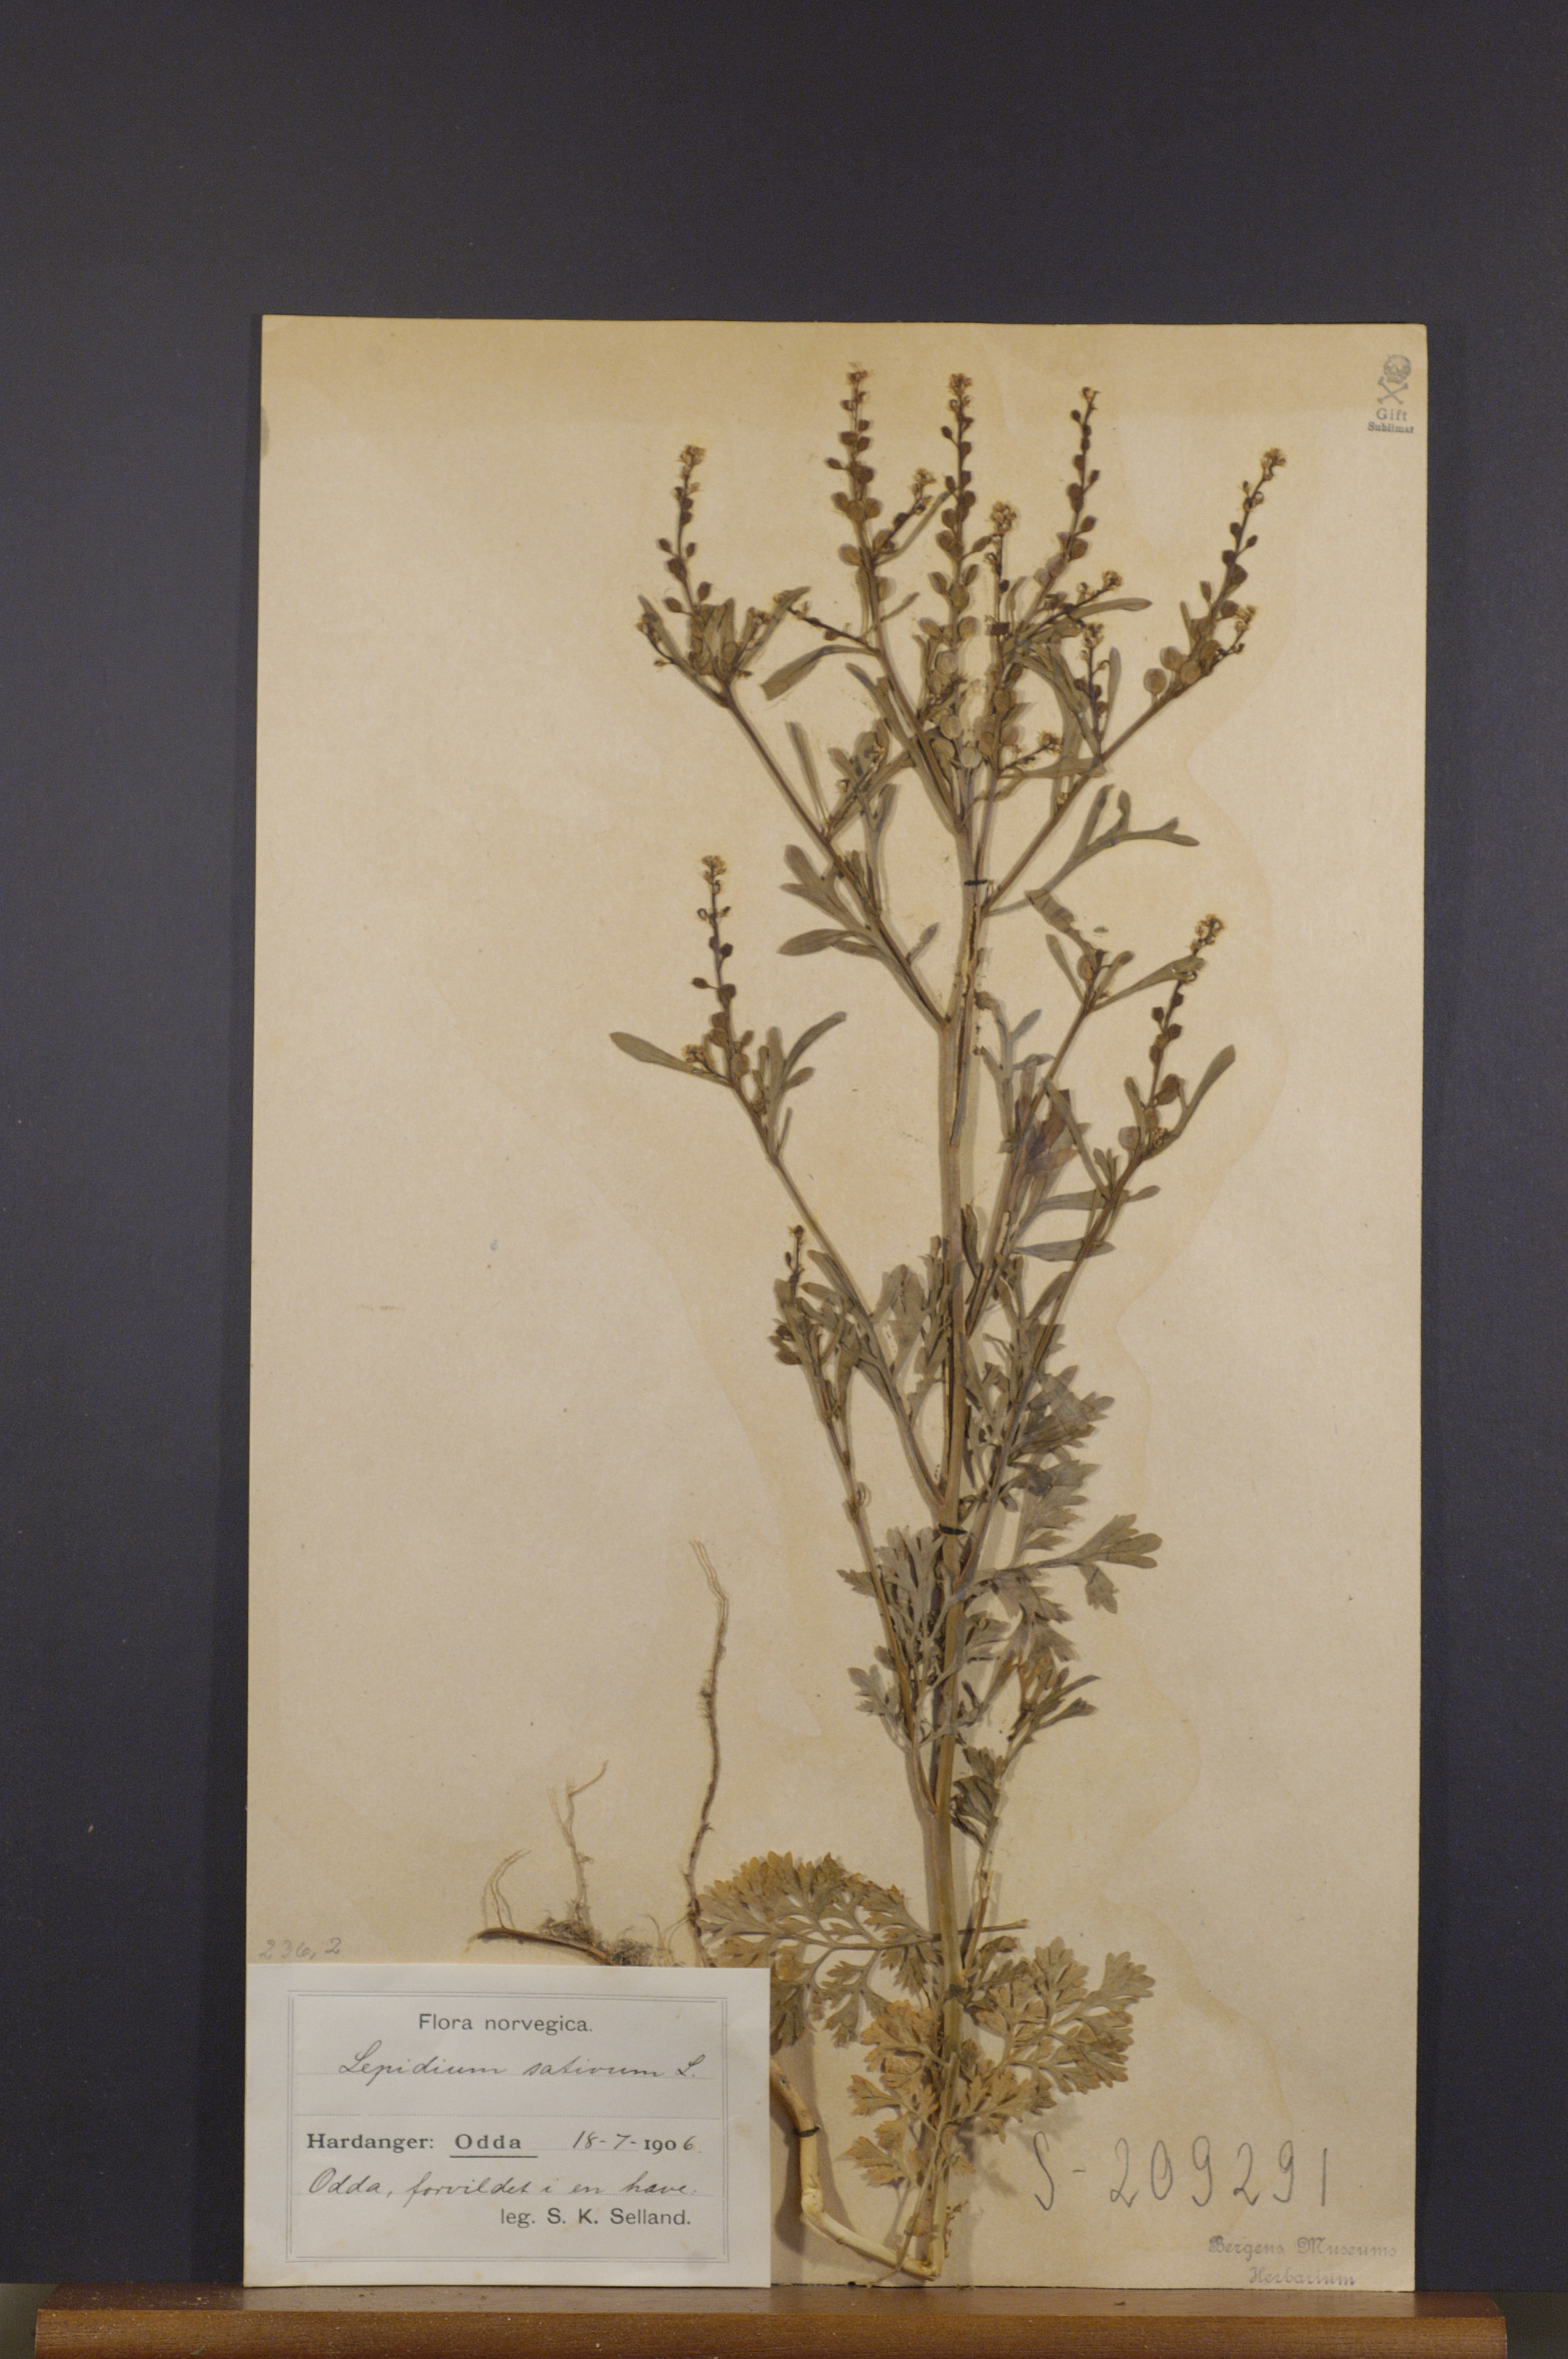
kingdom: Plantae
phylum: Tracheophyta
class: Magnoliopsida
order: Brassicales
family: Brassicaceae
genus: Lepidium
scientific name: Lepidium sativum
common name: Garden cress
